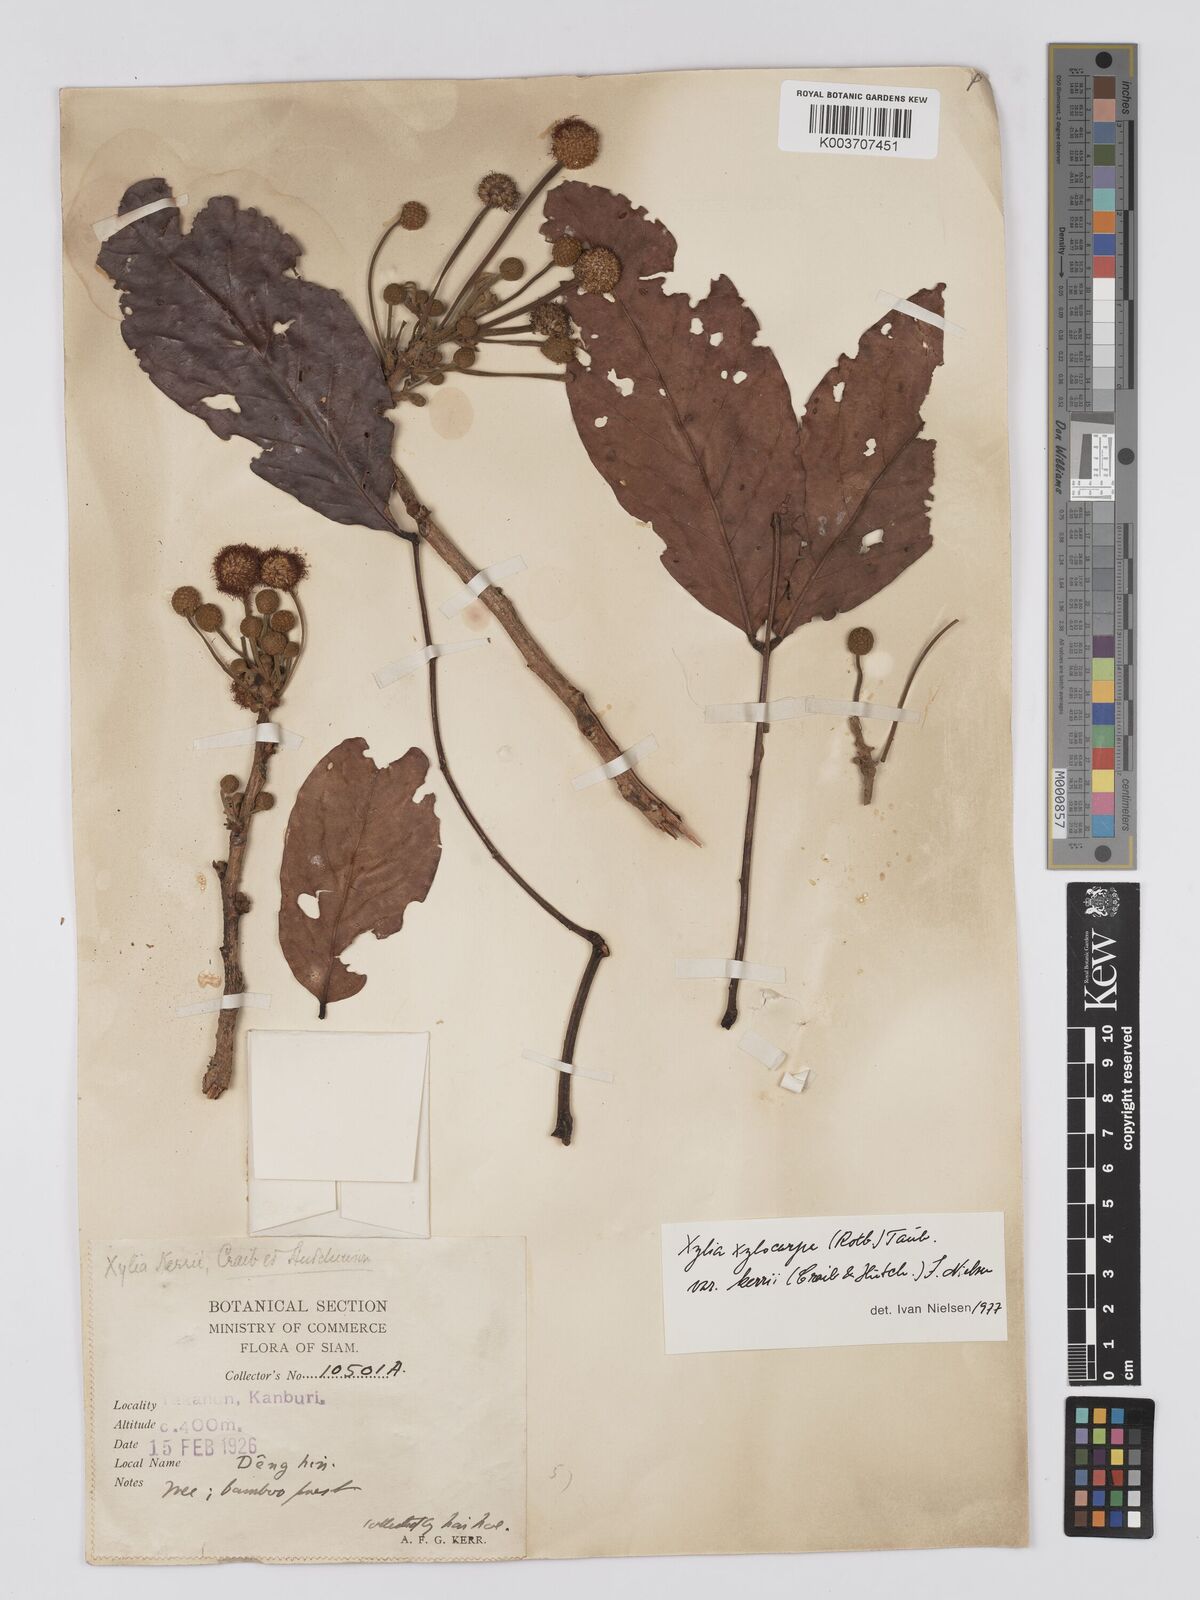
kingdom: Plantae
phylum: Tracheophyta
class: Magnoliopsida
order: Fabales
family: Fabaceae
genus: Xylia
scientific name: Xylia xylocarpa
